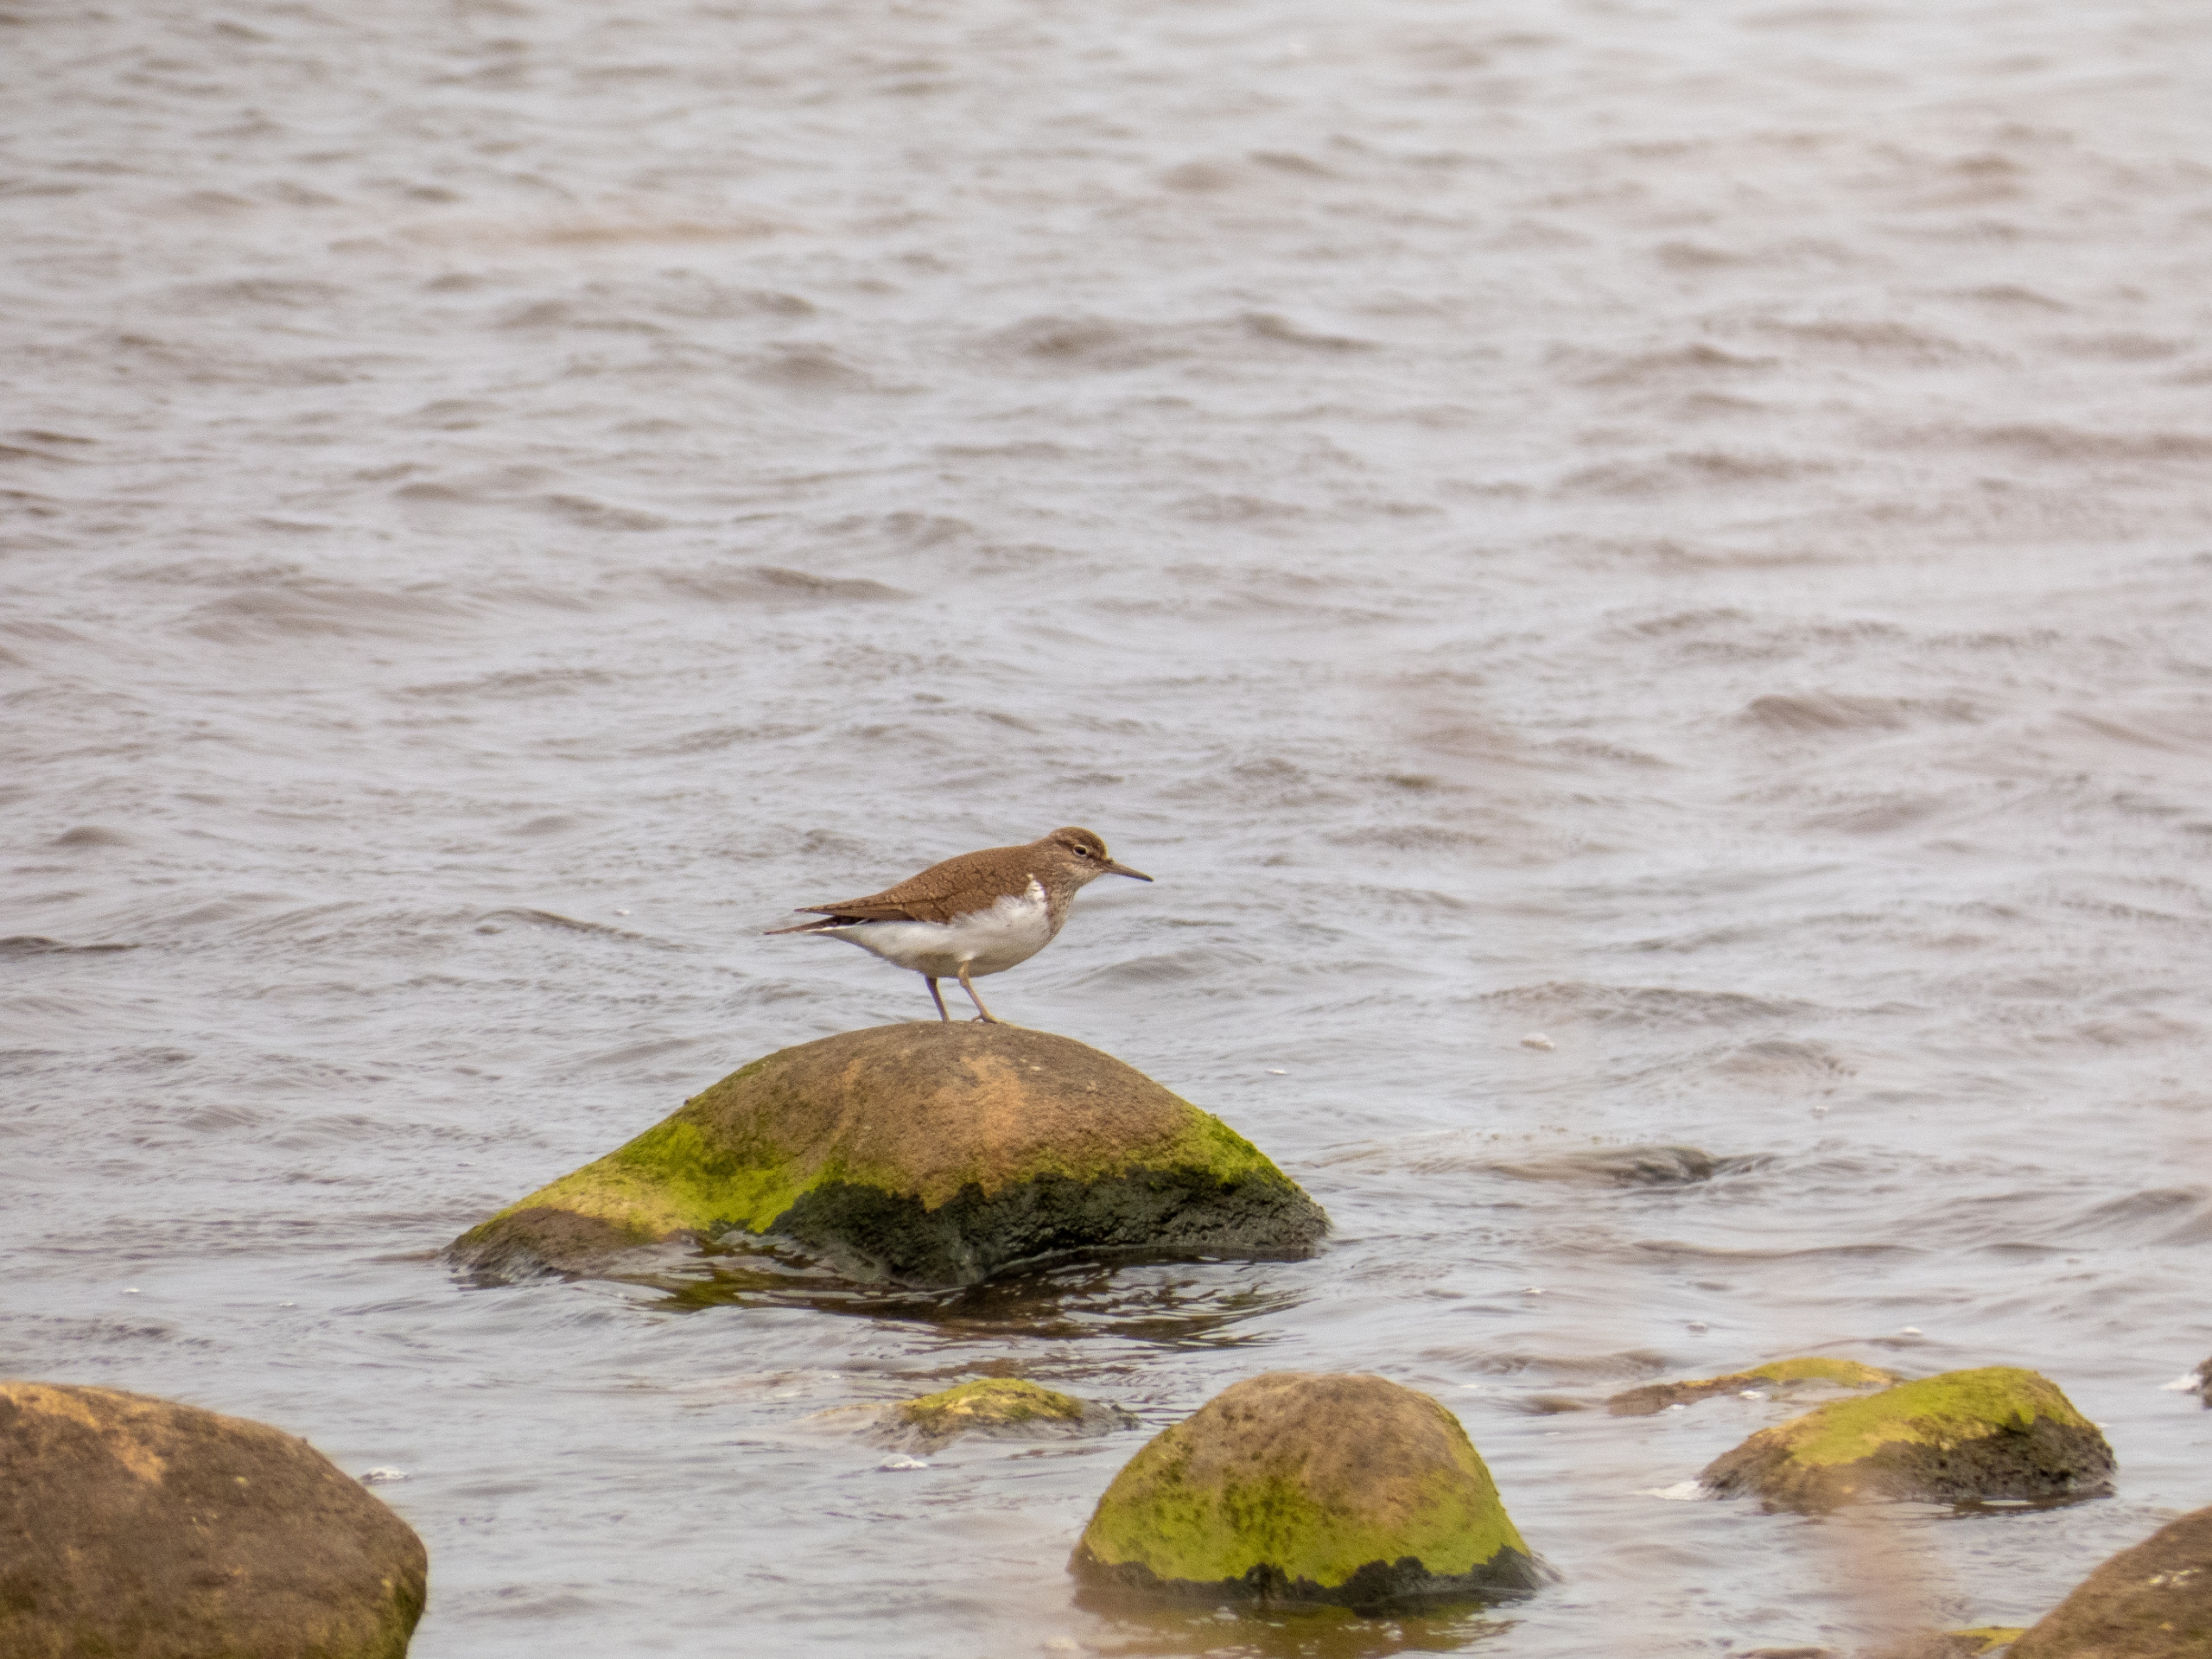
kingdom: Animalia
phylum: Chordata
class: Aves
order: Charadriiformes
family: Scolopacidae
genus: Actitis
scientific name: Actitis hypoleucos
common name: Mudderklire
